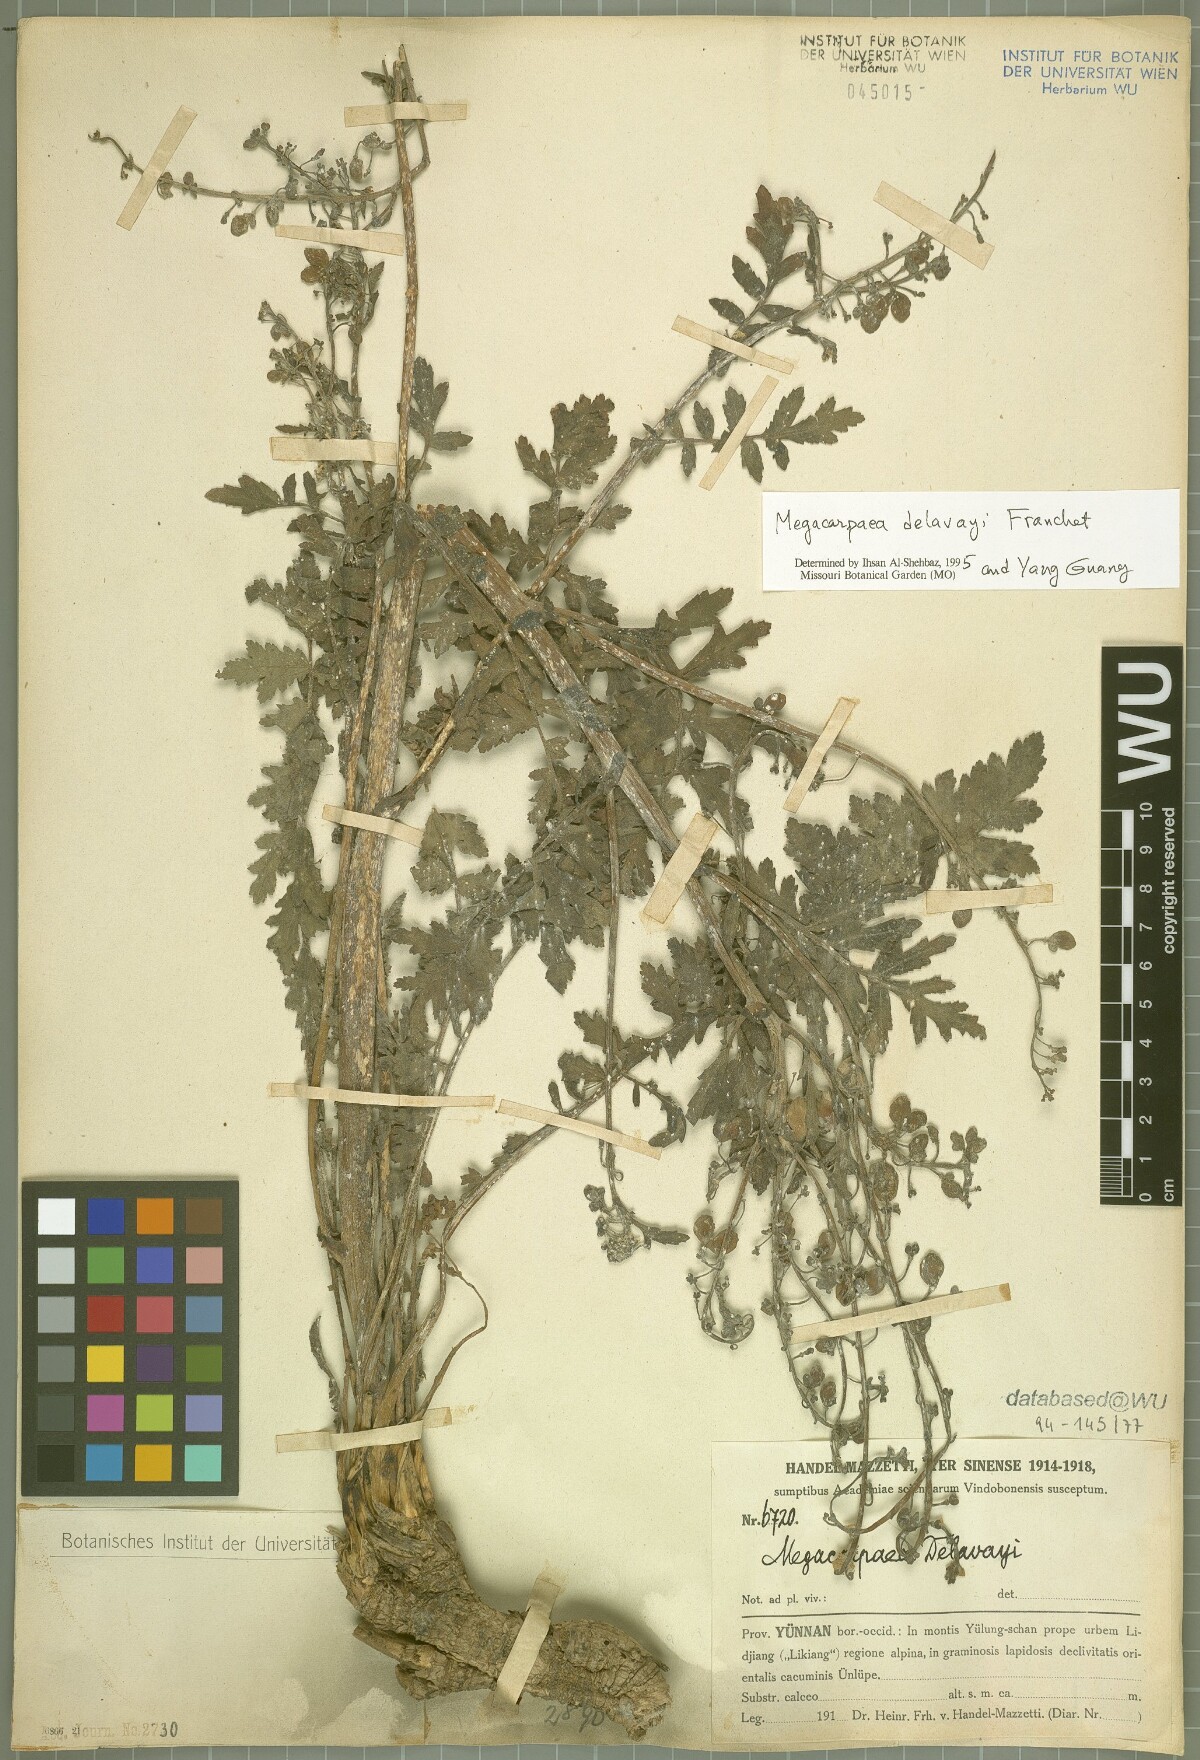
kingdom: Plantae
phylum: Tracheophyta
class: Magnoliopsida
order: Brassicales
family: Brassicaceae
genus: Megacarpaea
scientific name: Megacarpaea delavayi
